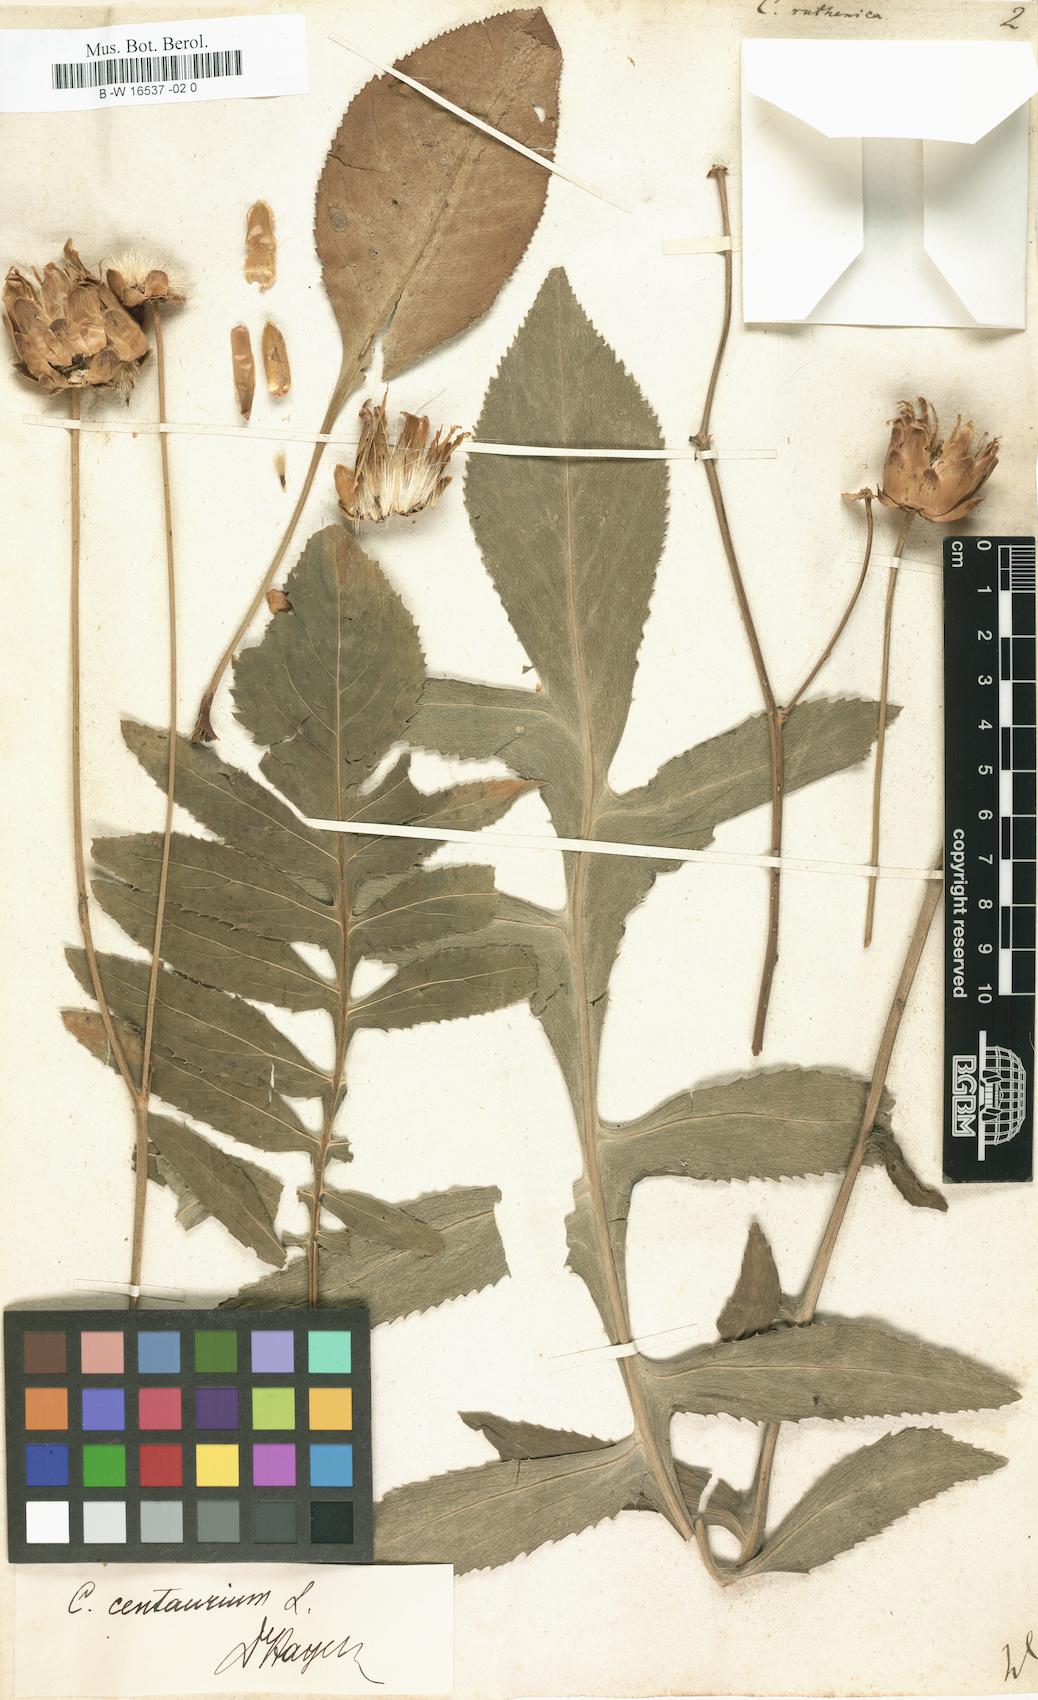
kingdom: Plantae
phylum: Tracheophyta
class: Magnoliopsida
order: Asterales
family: Asteraceae
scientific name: Asteraceae
